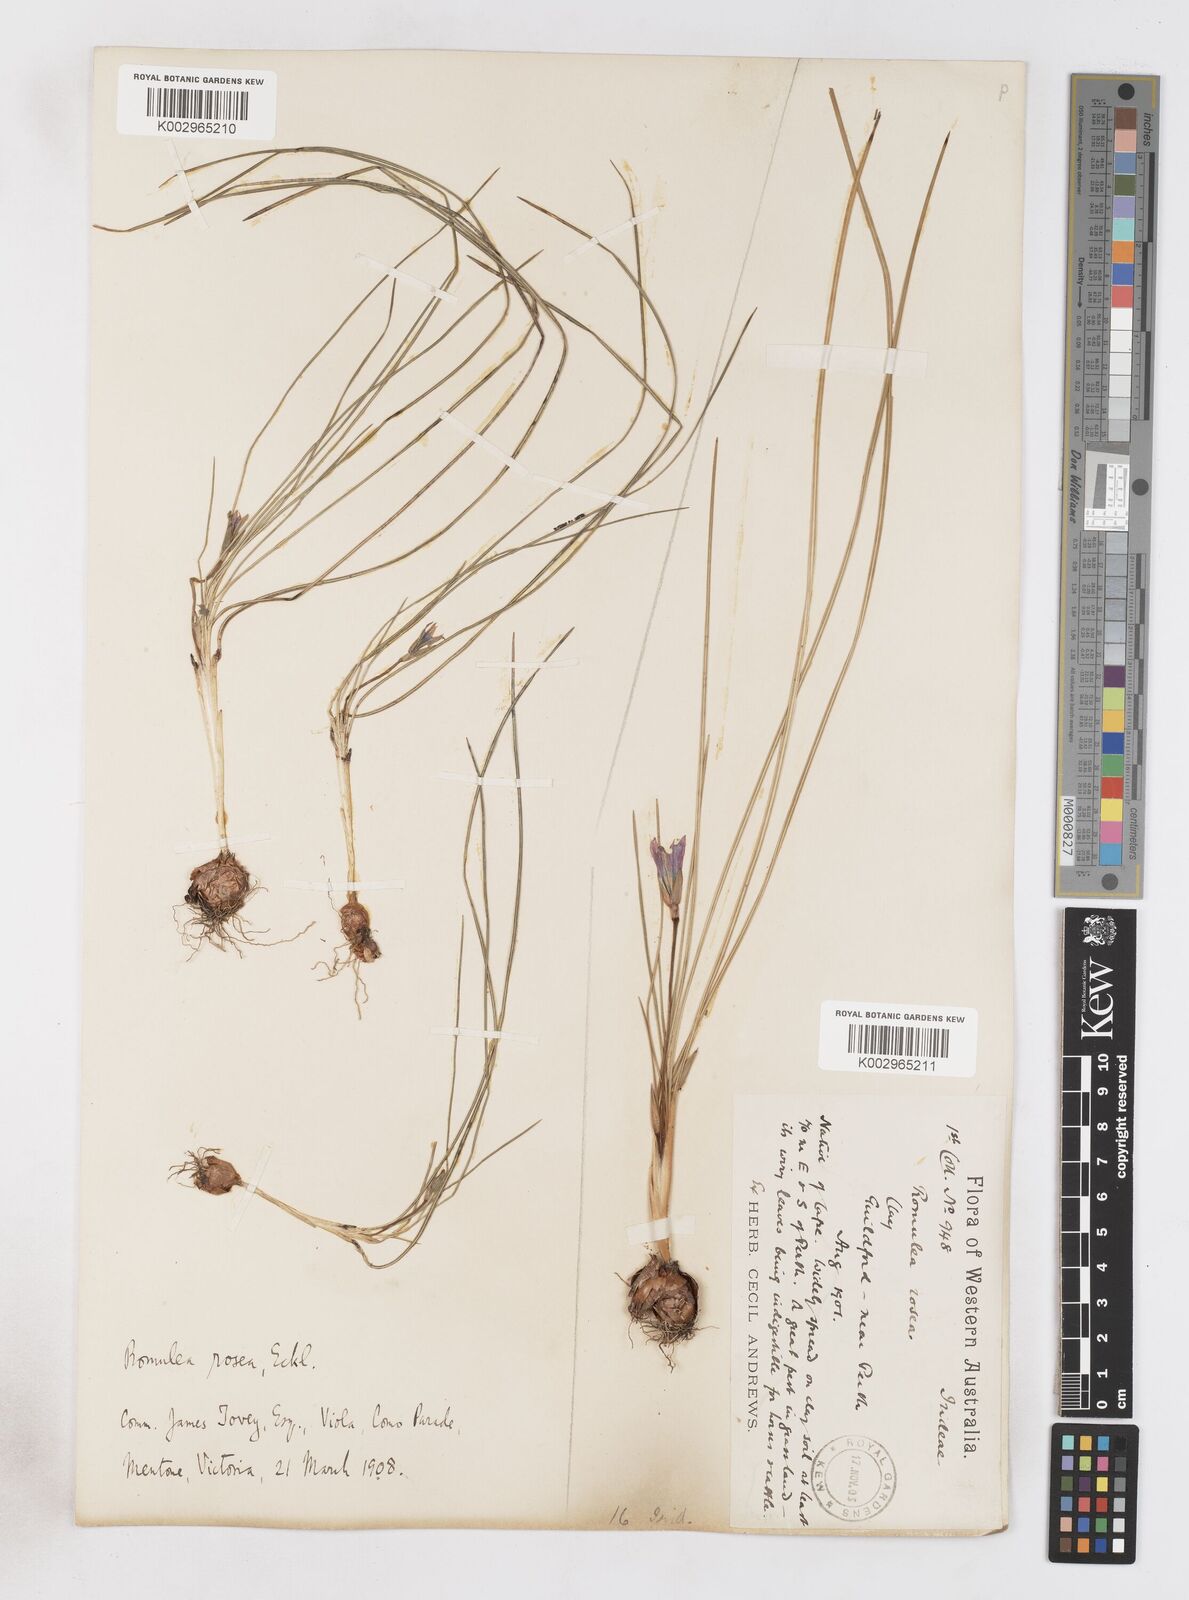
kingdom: Plantae
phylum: Tracheophyta
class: Liliopsida
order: Asparagales
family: Iridaceae
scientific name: Iridaceae
